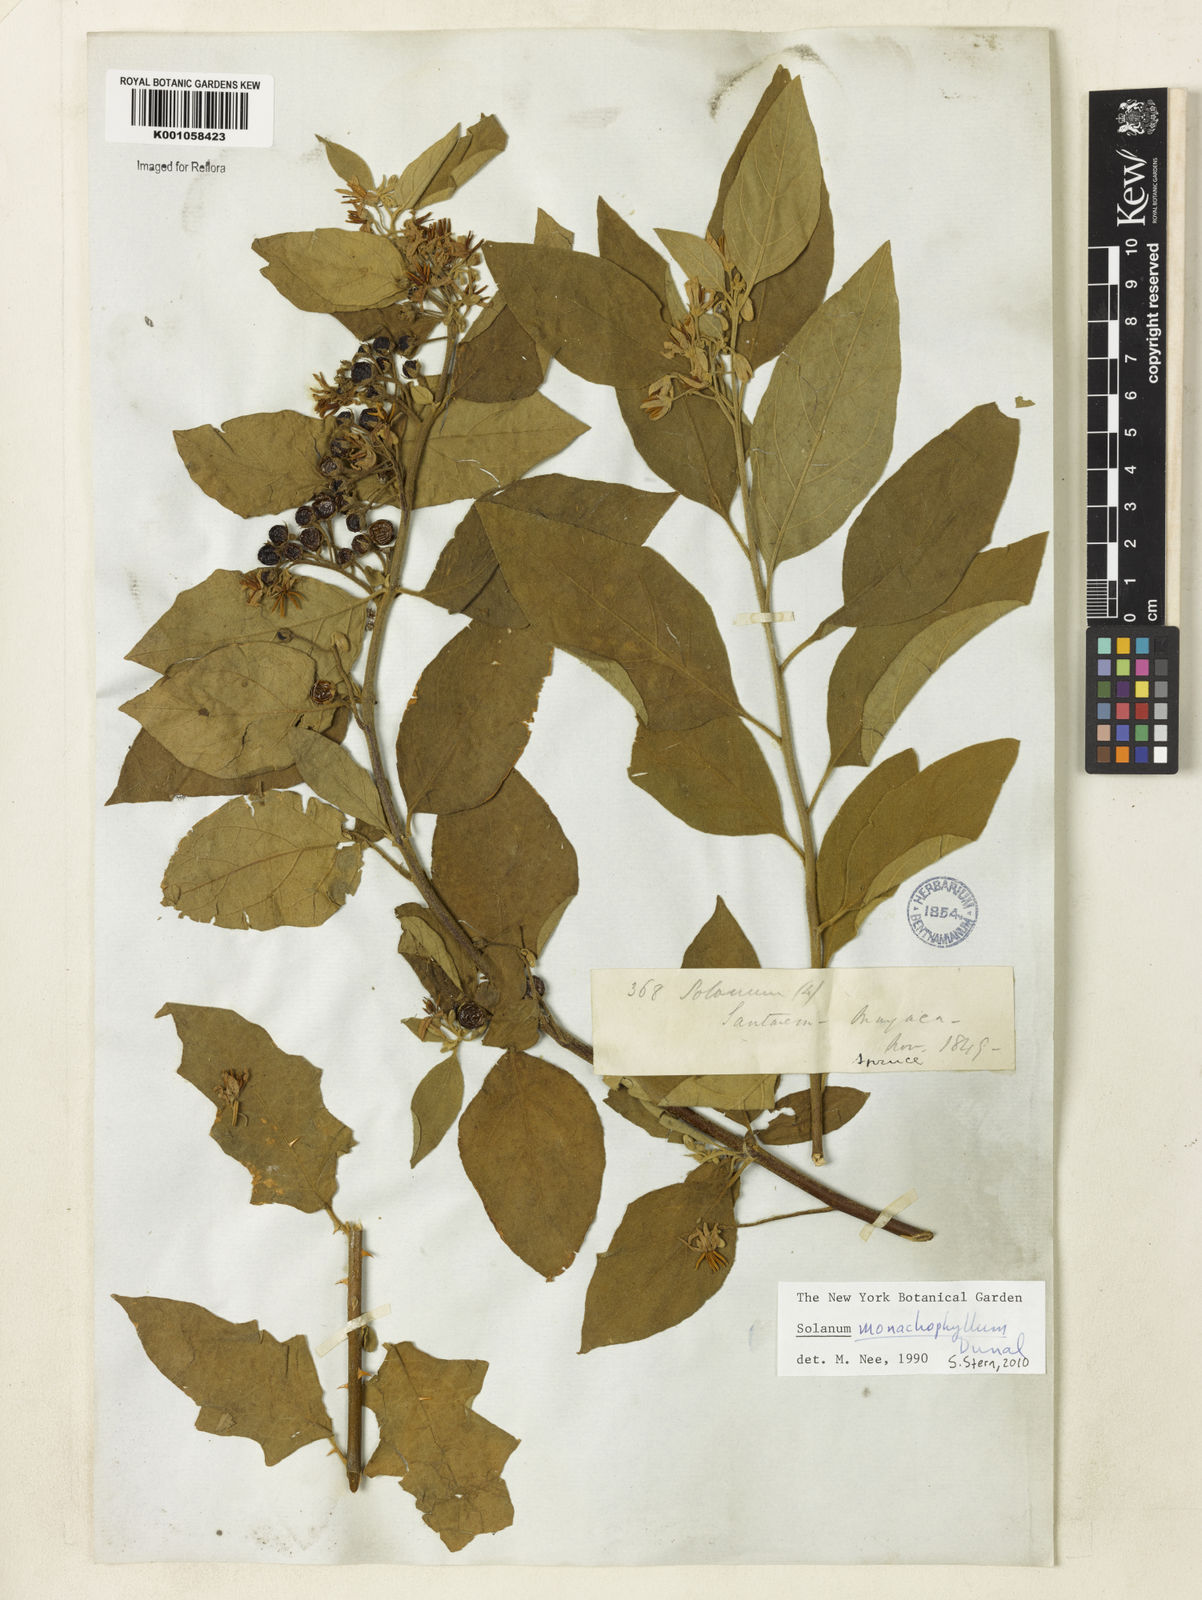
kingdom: Plantae
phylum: Tracheophyta
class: Magnoliopsida
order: Solanales
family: Solanaceae
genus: Solanum
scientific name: Solanum monachophyllum
